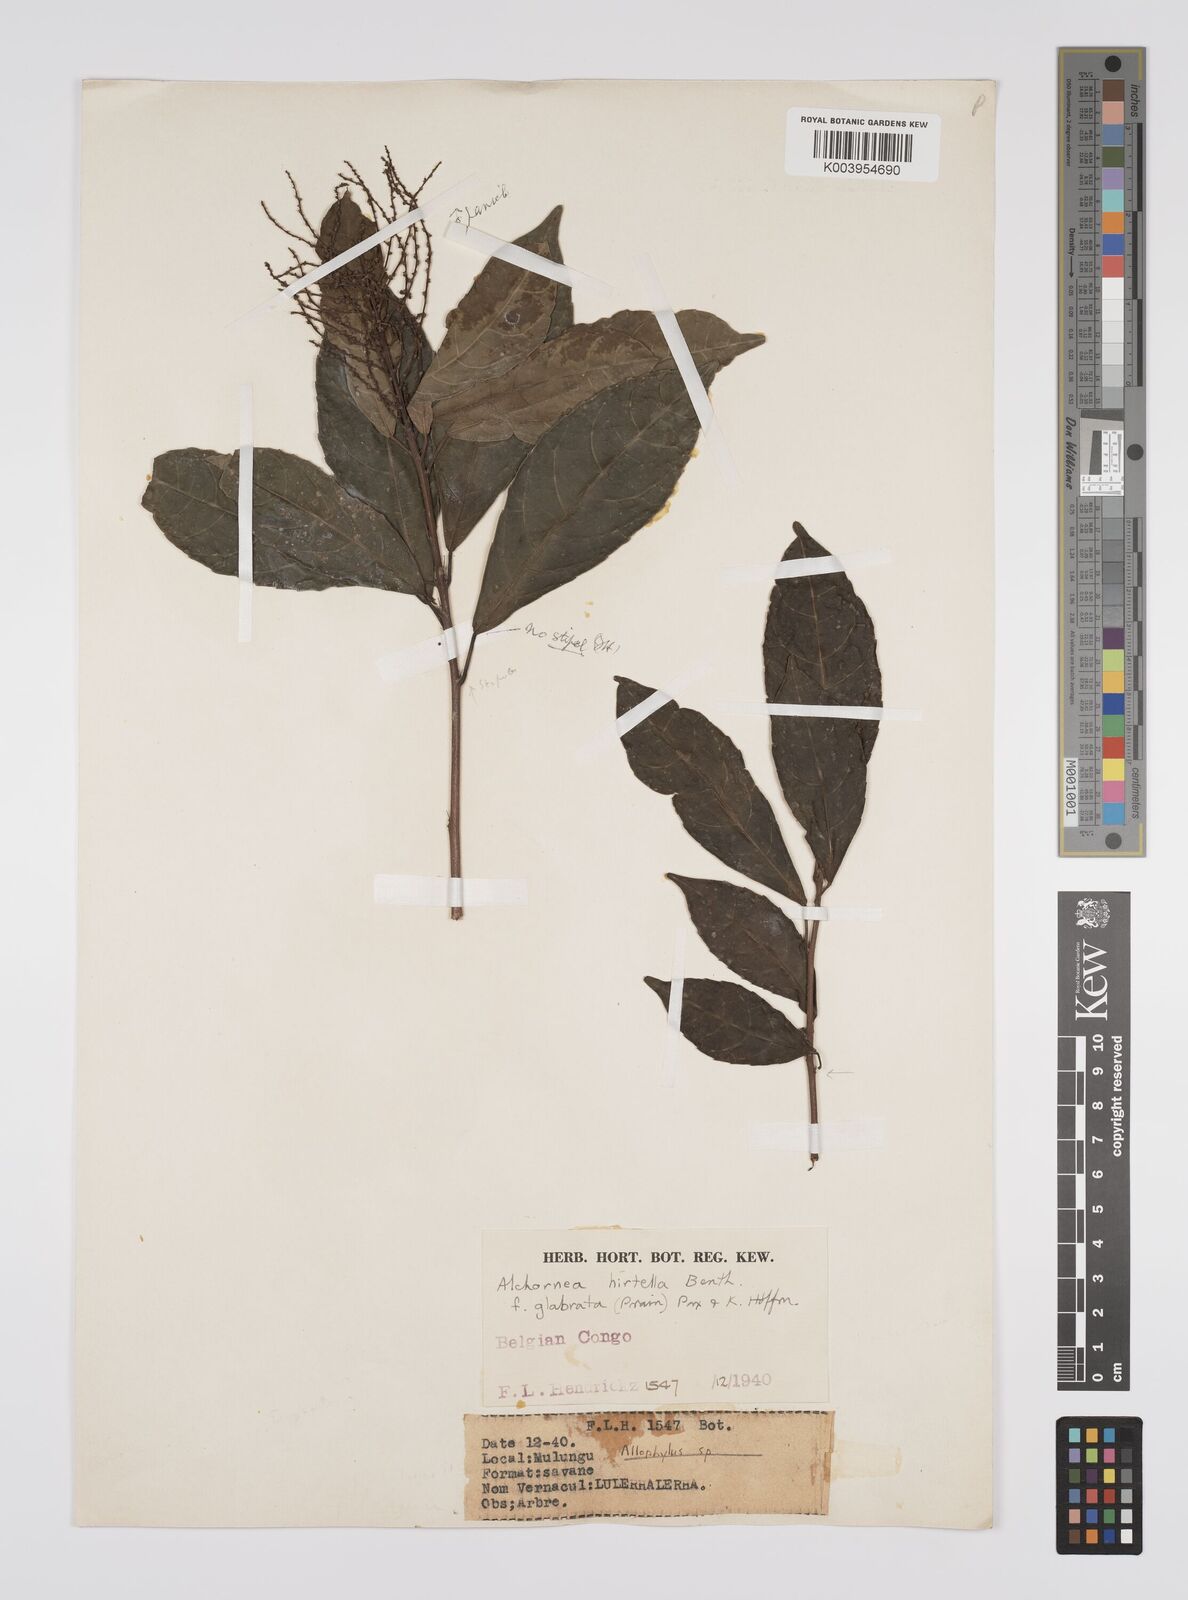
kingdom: Plantae
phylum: Tracheophyta
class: Magnoliopsida
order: Malpighiales
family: Euphorbiaceae
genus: Alchornea
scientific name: Alchornea hirtella
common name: Forest bead-string
